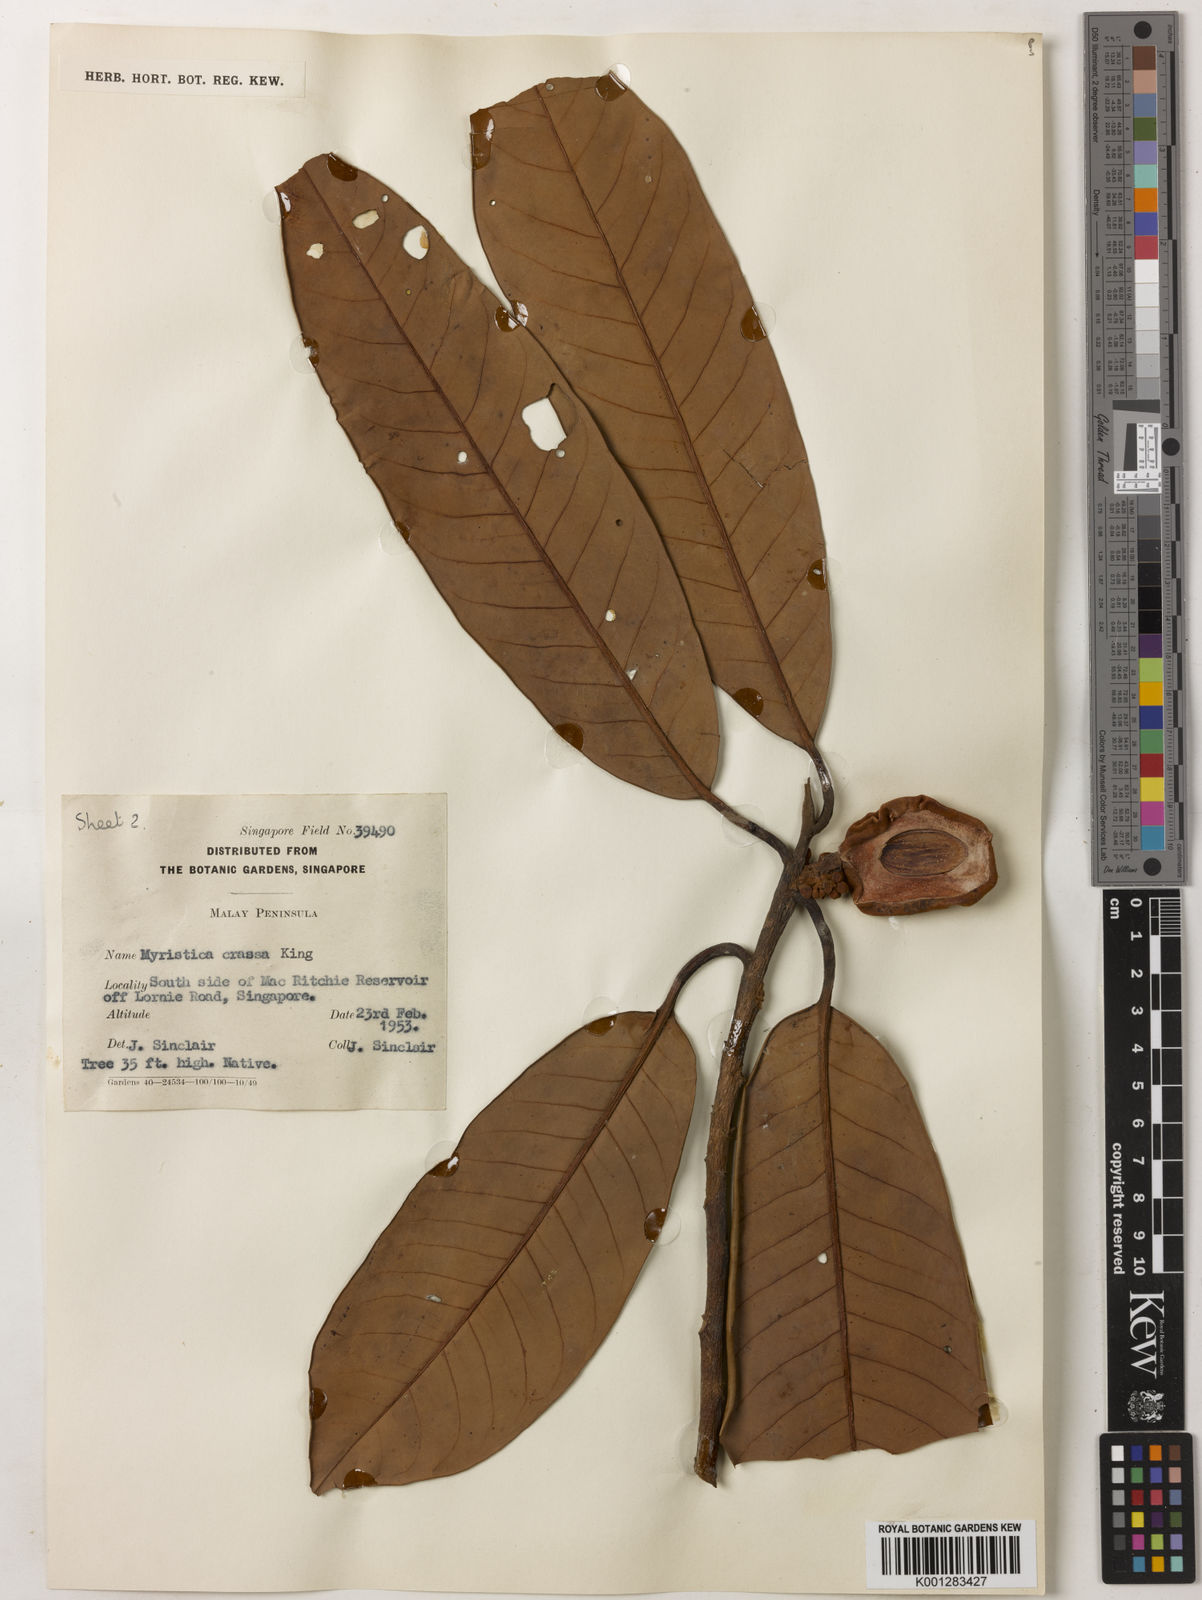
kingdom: Plantae
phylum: Tracheophyta
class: Magnoliopsida
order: Magnoliales
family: Myristicaceae
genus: Myristica
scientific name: Myristica crassa
